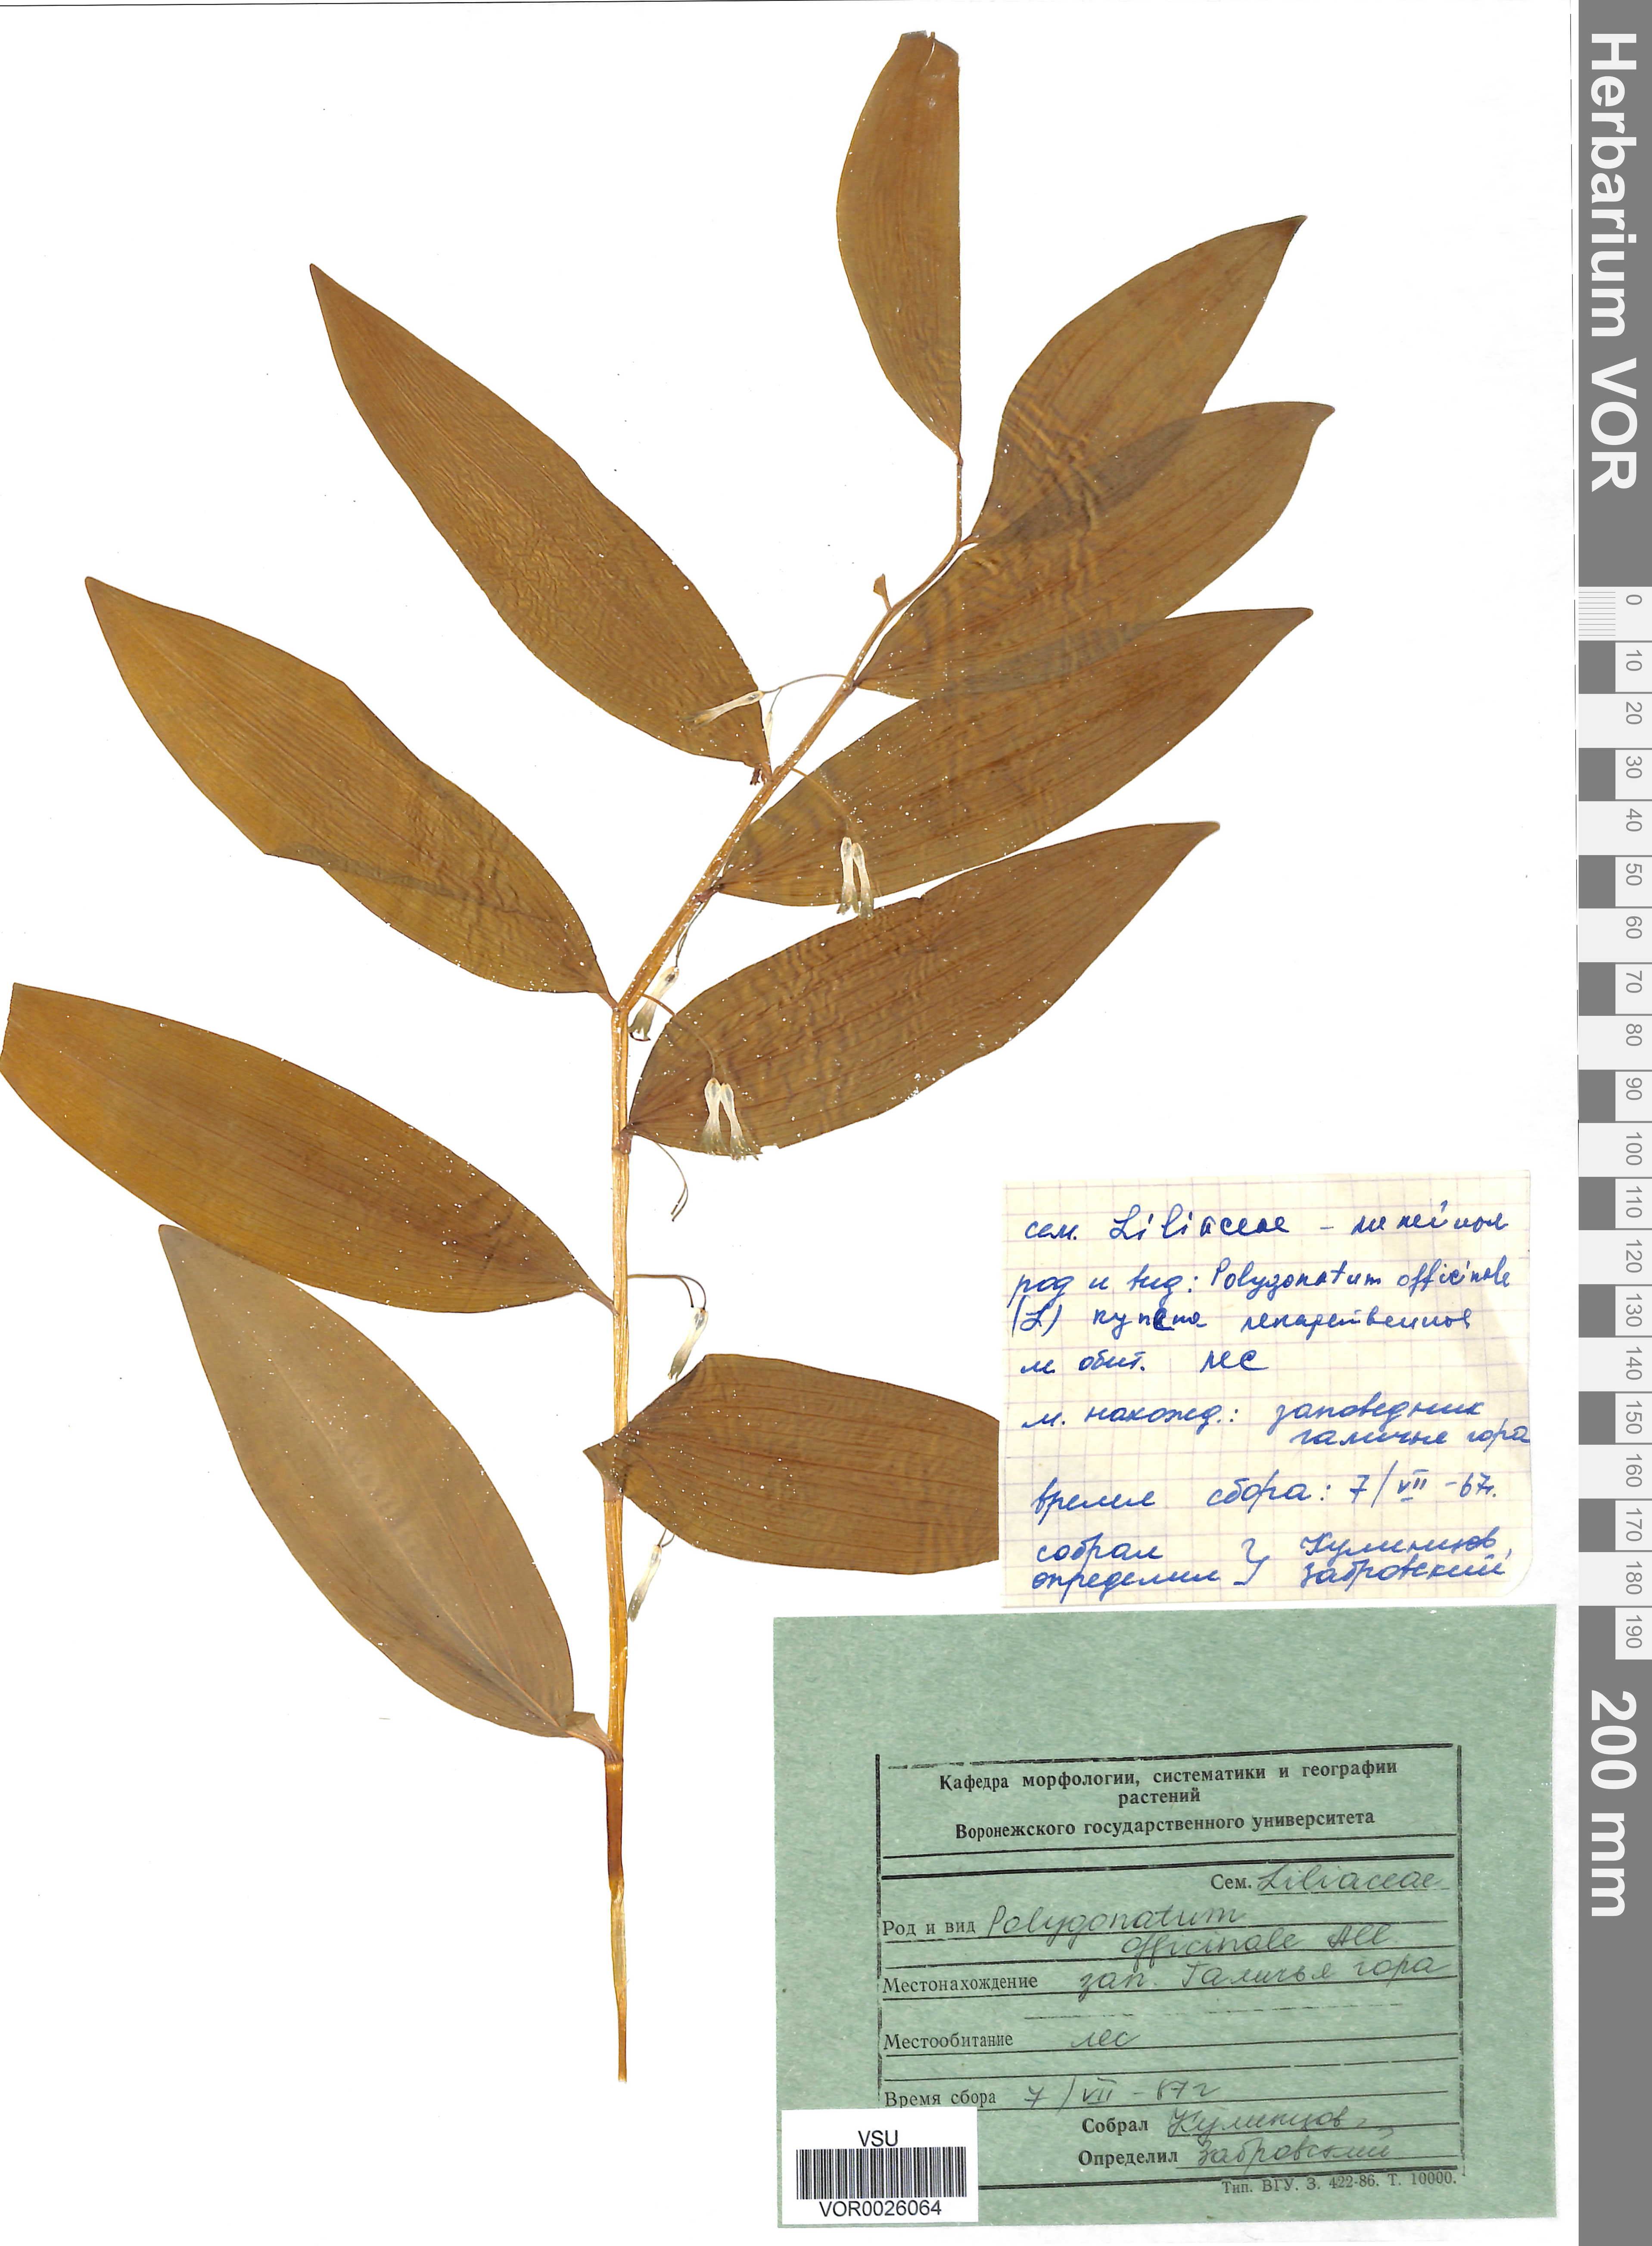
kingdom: Plantae
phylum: Tracheophyta
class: Liliopsida
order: Asparagales
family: Asparagaceae
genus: Polygonatum
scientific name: Polygonatum odoratum
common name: Angular solomon's-seal
